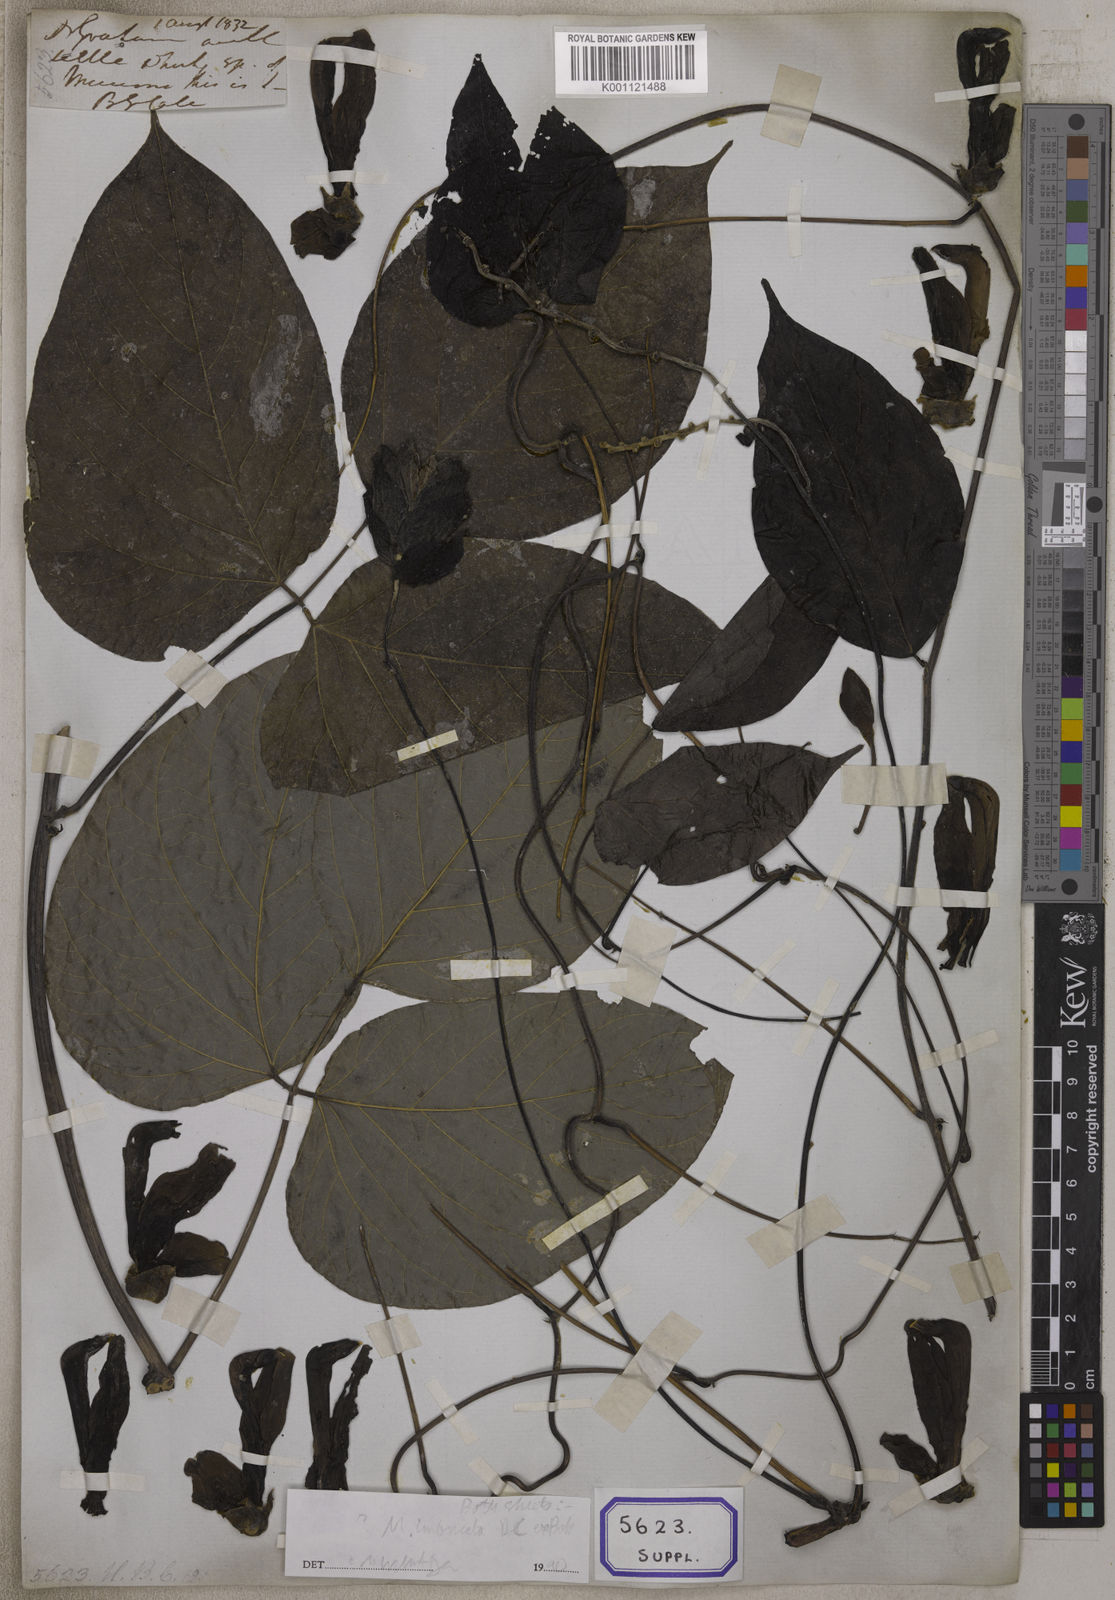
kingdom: Plantae
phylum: Tracheophyta
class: Magnoliopsida
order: Fabales
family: Fabaceae
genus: Mucuna
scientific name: Mucuna
